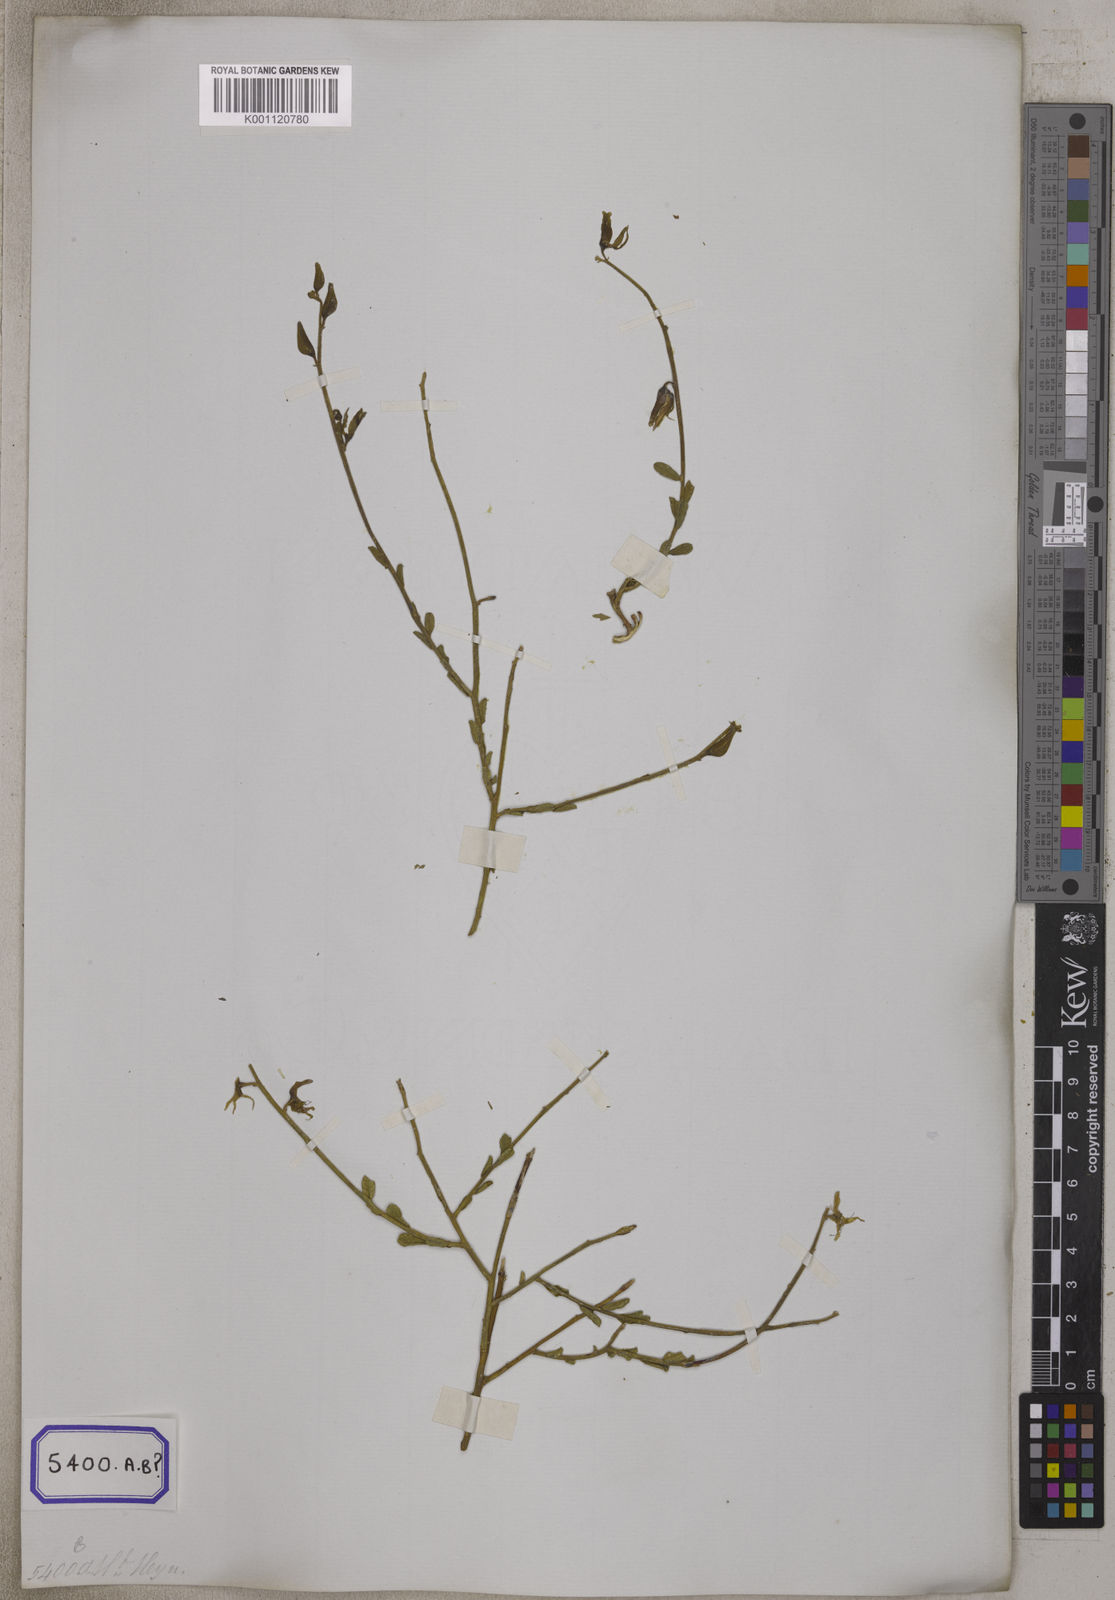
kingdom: Plantae
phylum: Tracheophyta
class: Magnoliopsida
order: Fabales
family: Fabaceae
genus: Crotalaria
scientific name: Crotalaria linifolia
